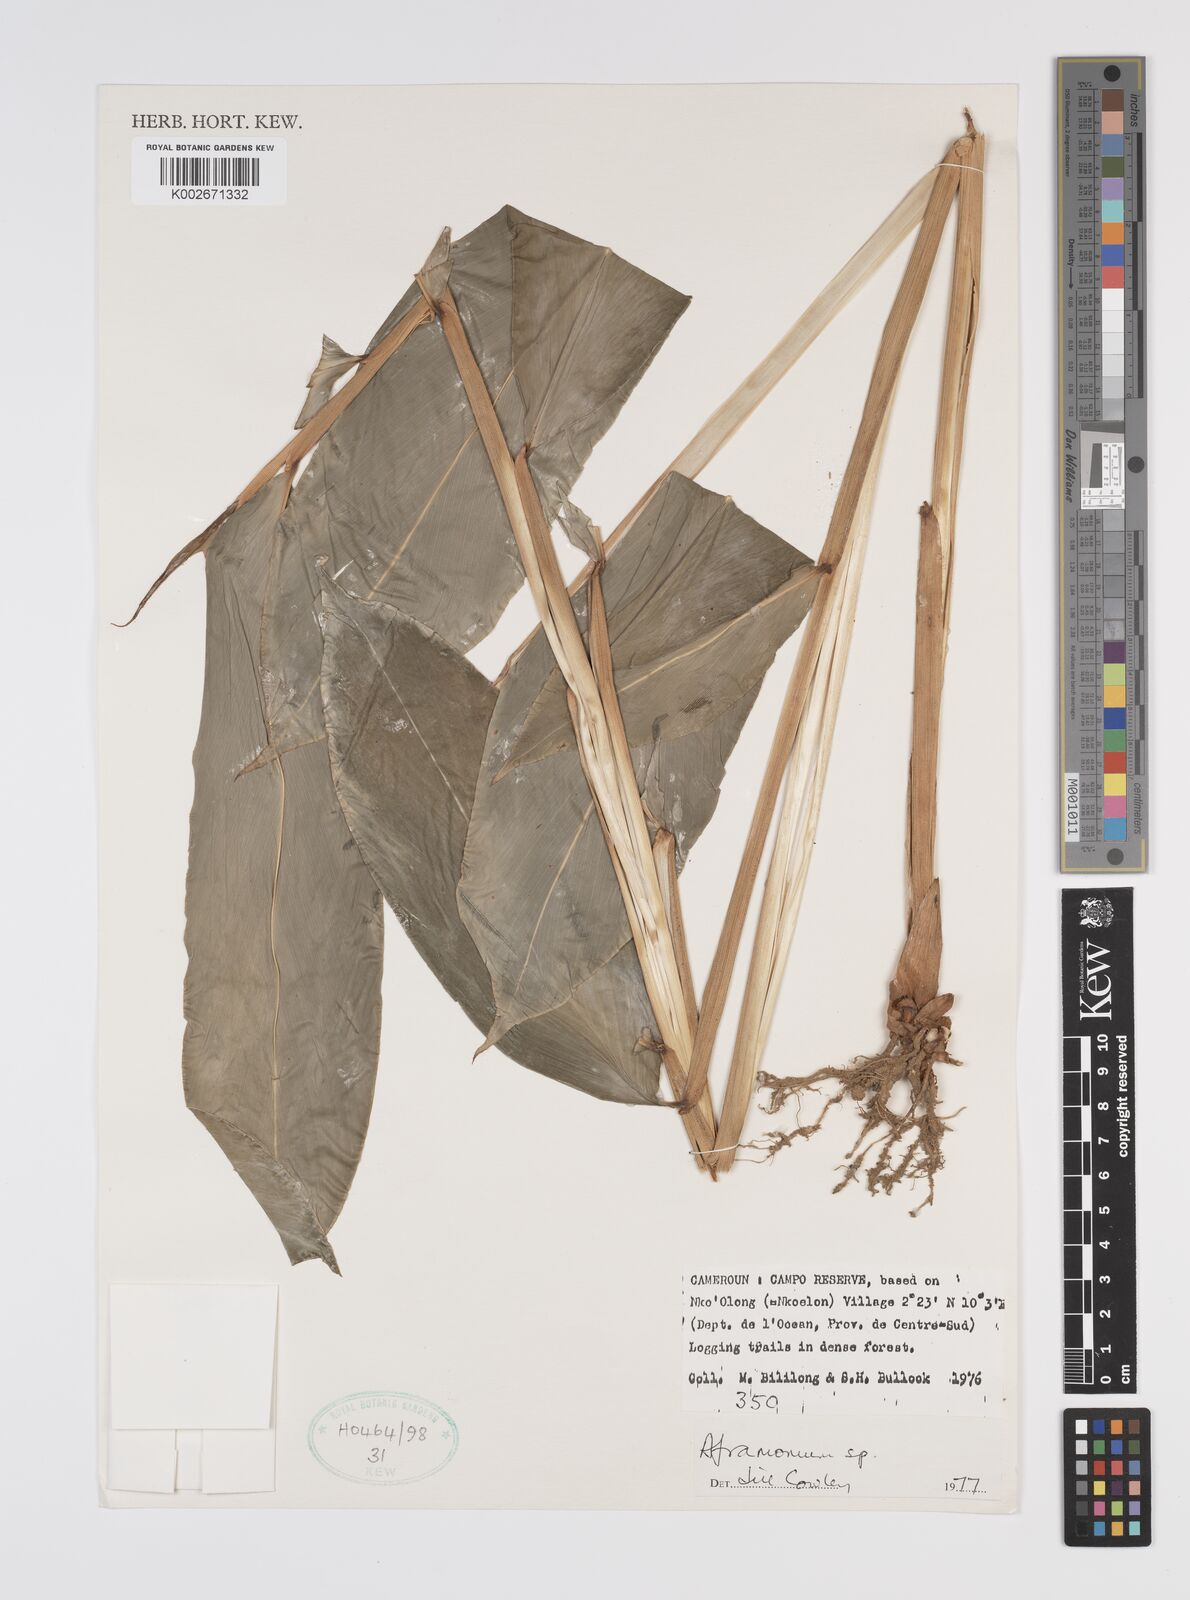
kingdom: Plantae
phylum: Tracheophyta
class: Liliopsida
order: Zingiberales
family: Zingiberaceae
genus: Aframomum
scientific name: Aframomum
